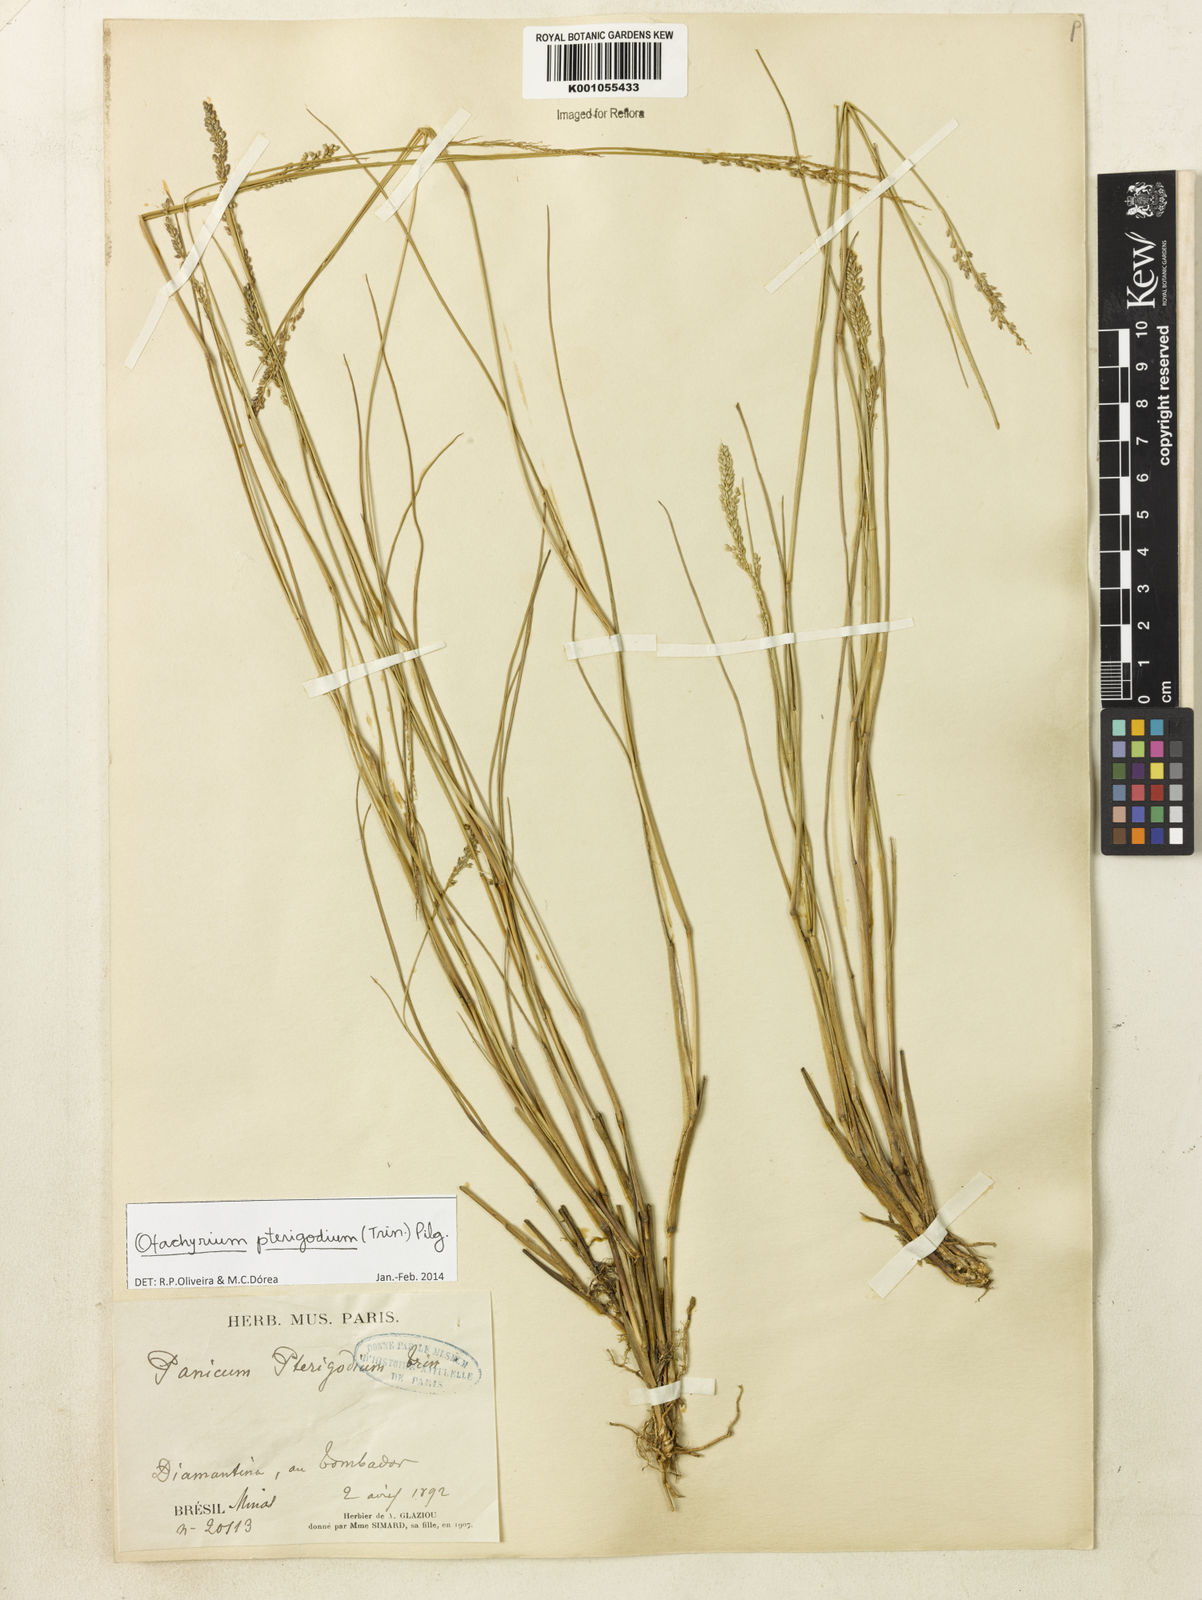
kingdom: Plantae
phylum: Tracheophyta
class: Liliopsida
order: Poales
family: Poaceae
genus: Otachyrium
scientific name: Otachyrium pterigodium
